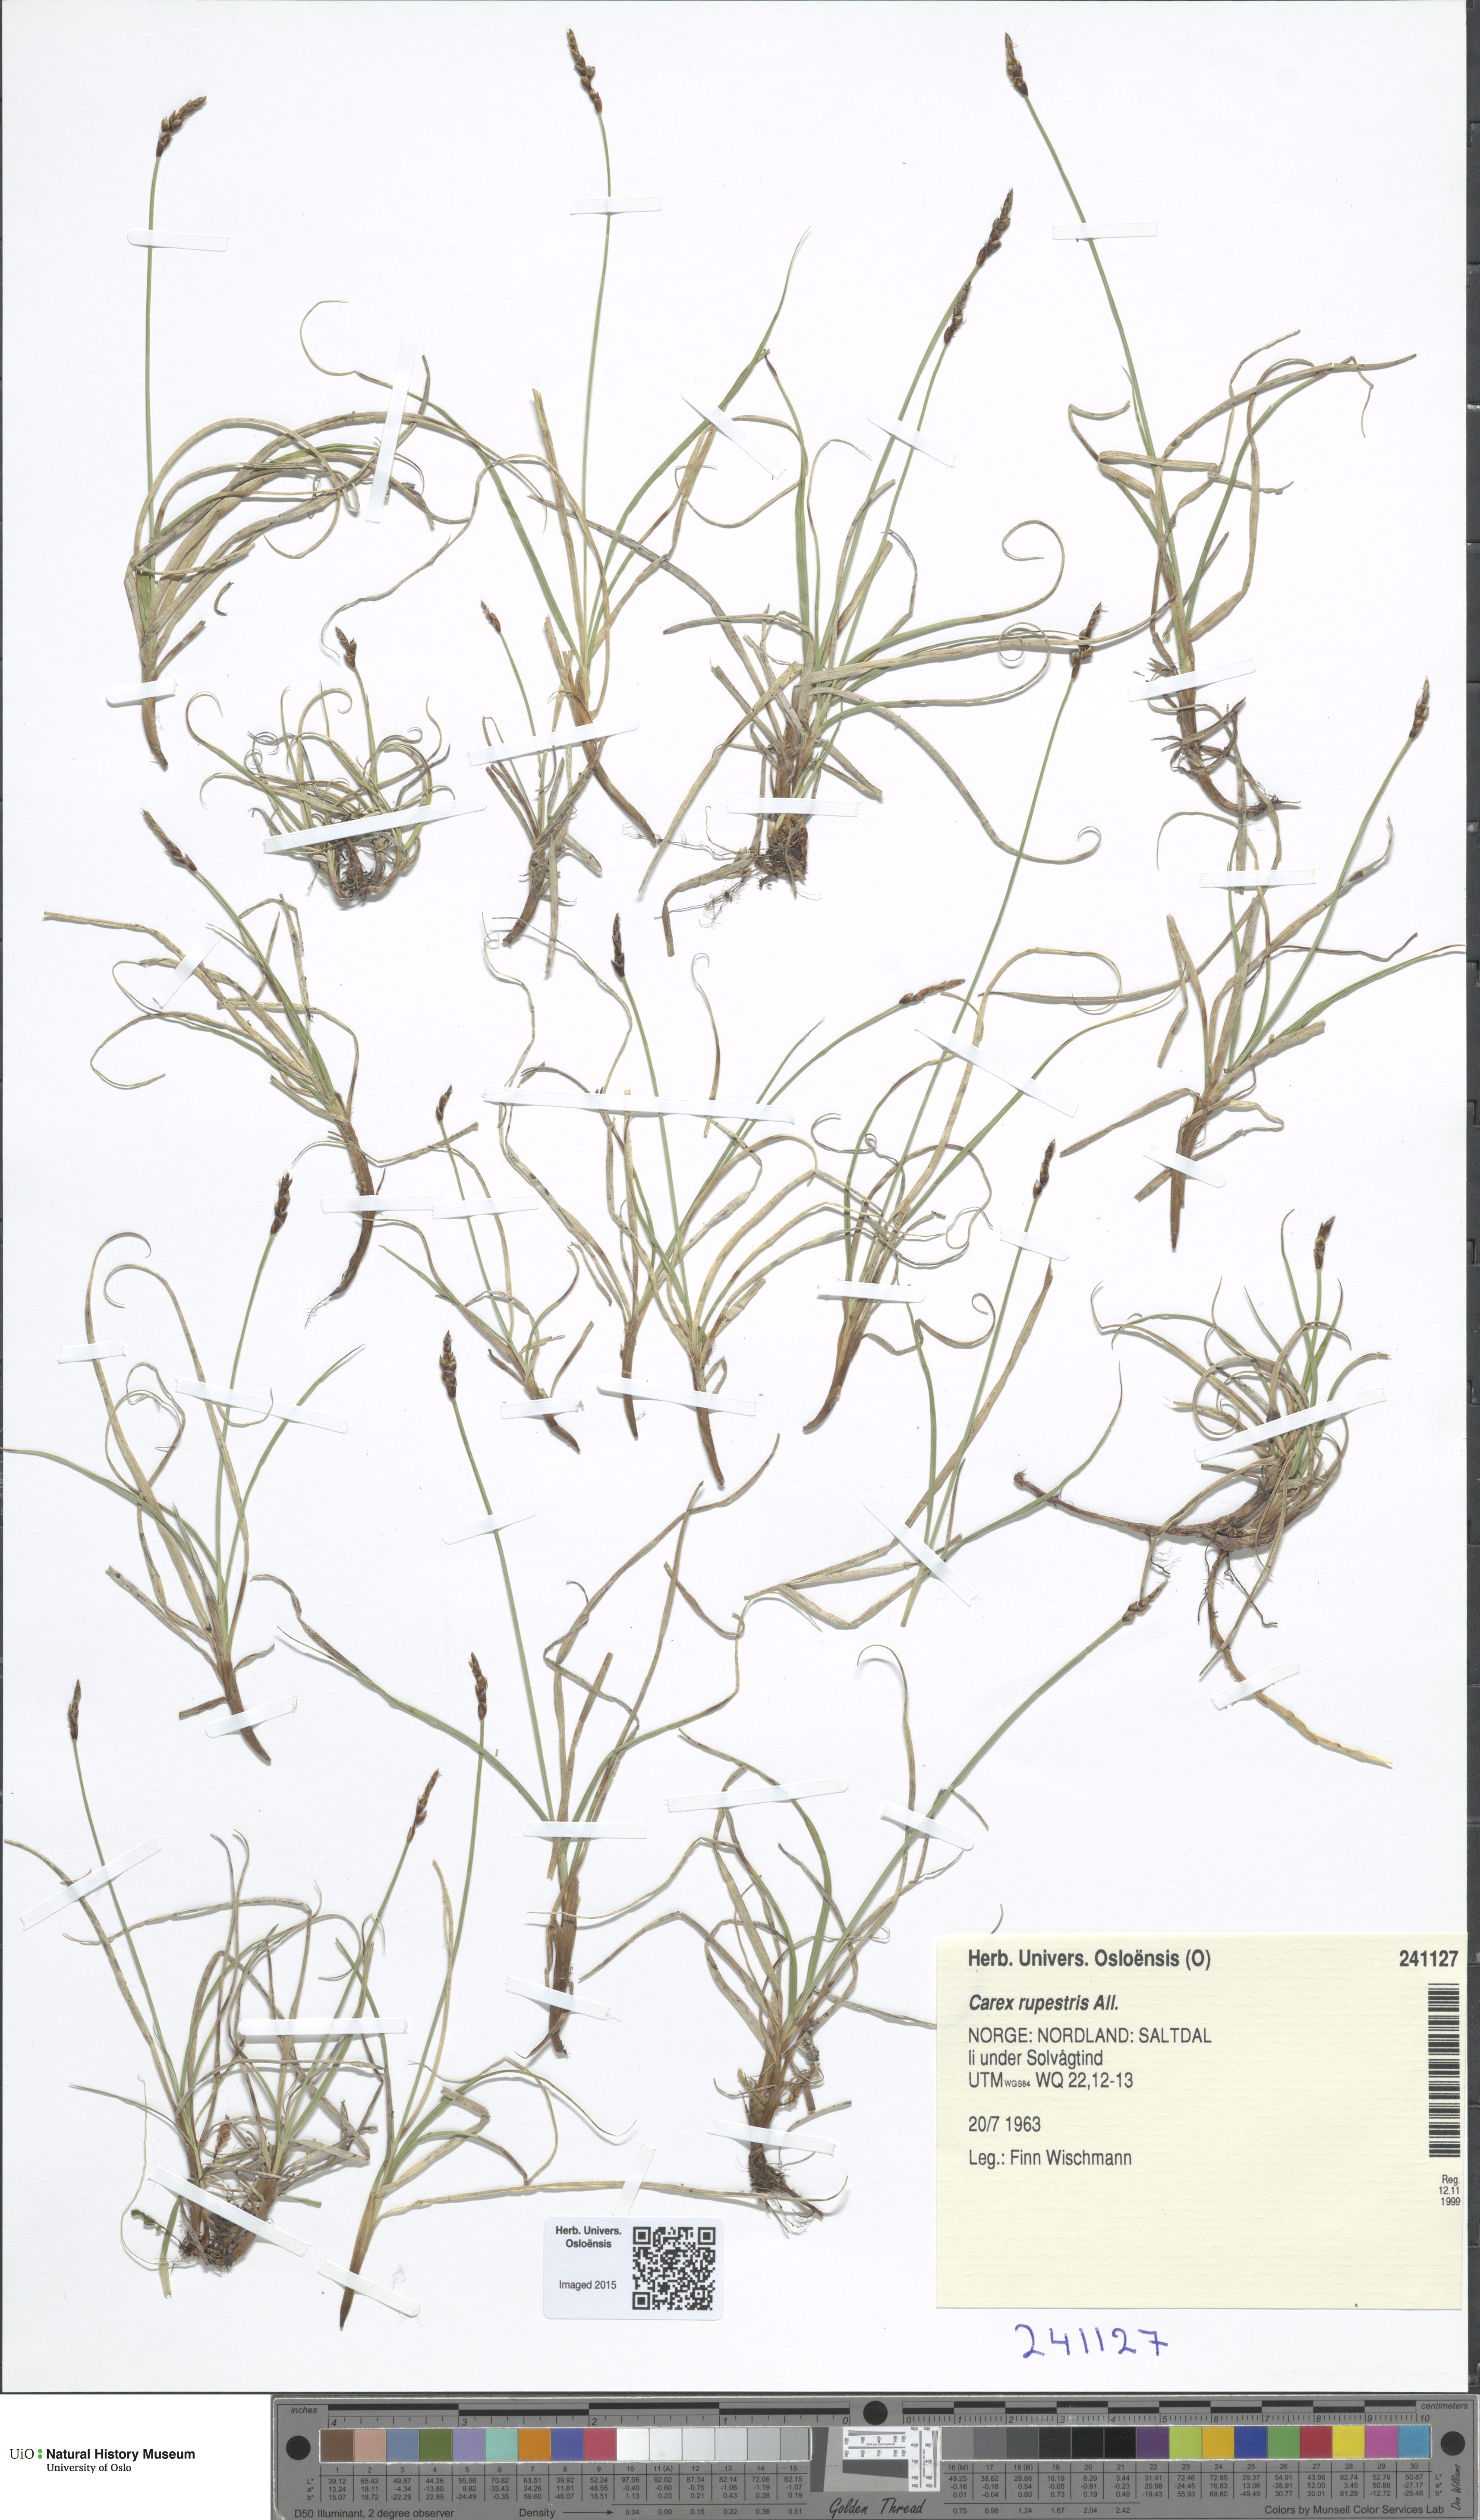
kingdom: Plantae
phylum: Tracheophyta
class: Liliopsida
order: Poales
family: Cyperaceae
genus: Carex
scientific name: Carex rupestris
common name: Rock sedge
